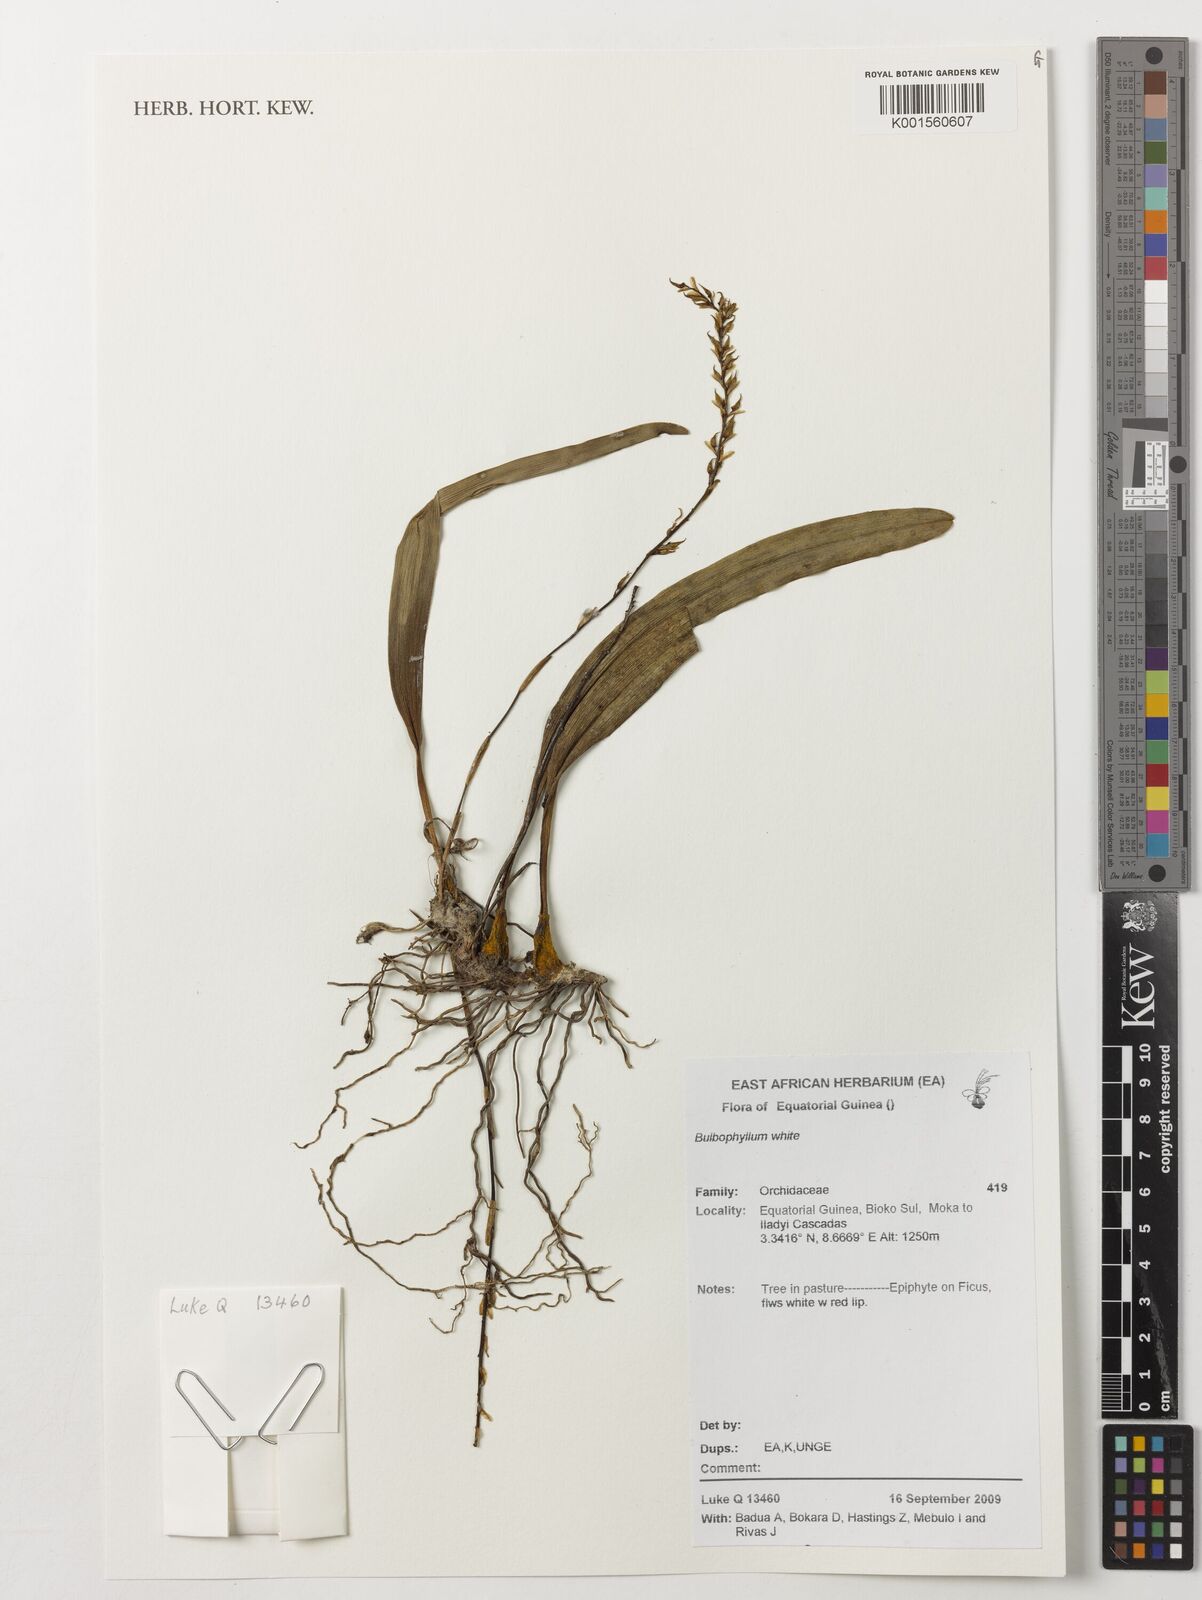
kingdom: Plantae
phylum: Tracheophyta
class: Liliopsida
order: Asparagales
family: Orchidaceae
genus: Bulbophyllum
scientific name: Bulbophyllum
